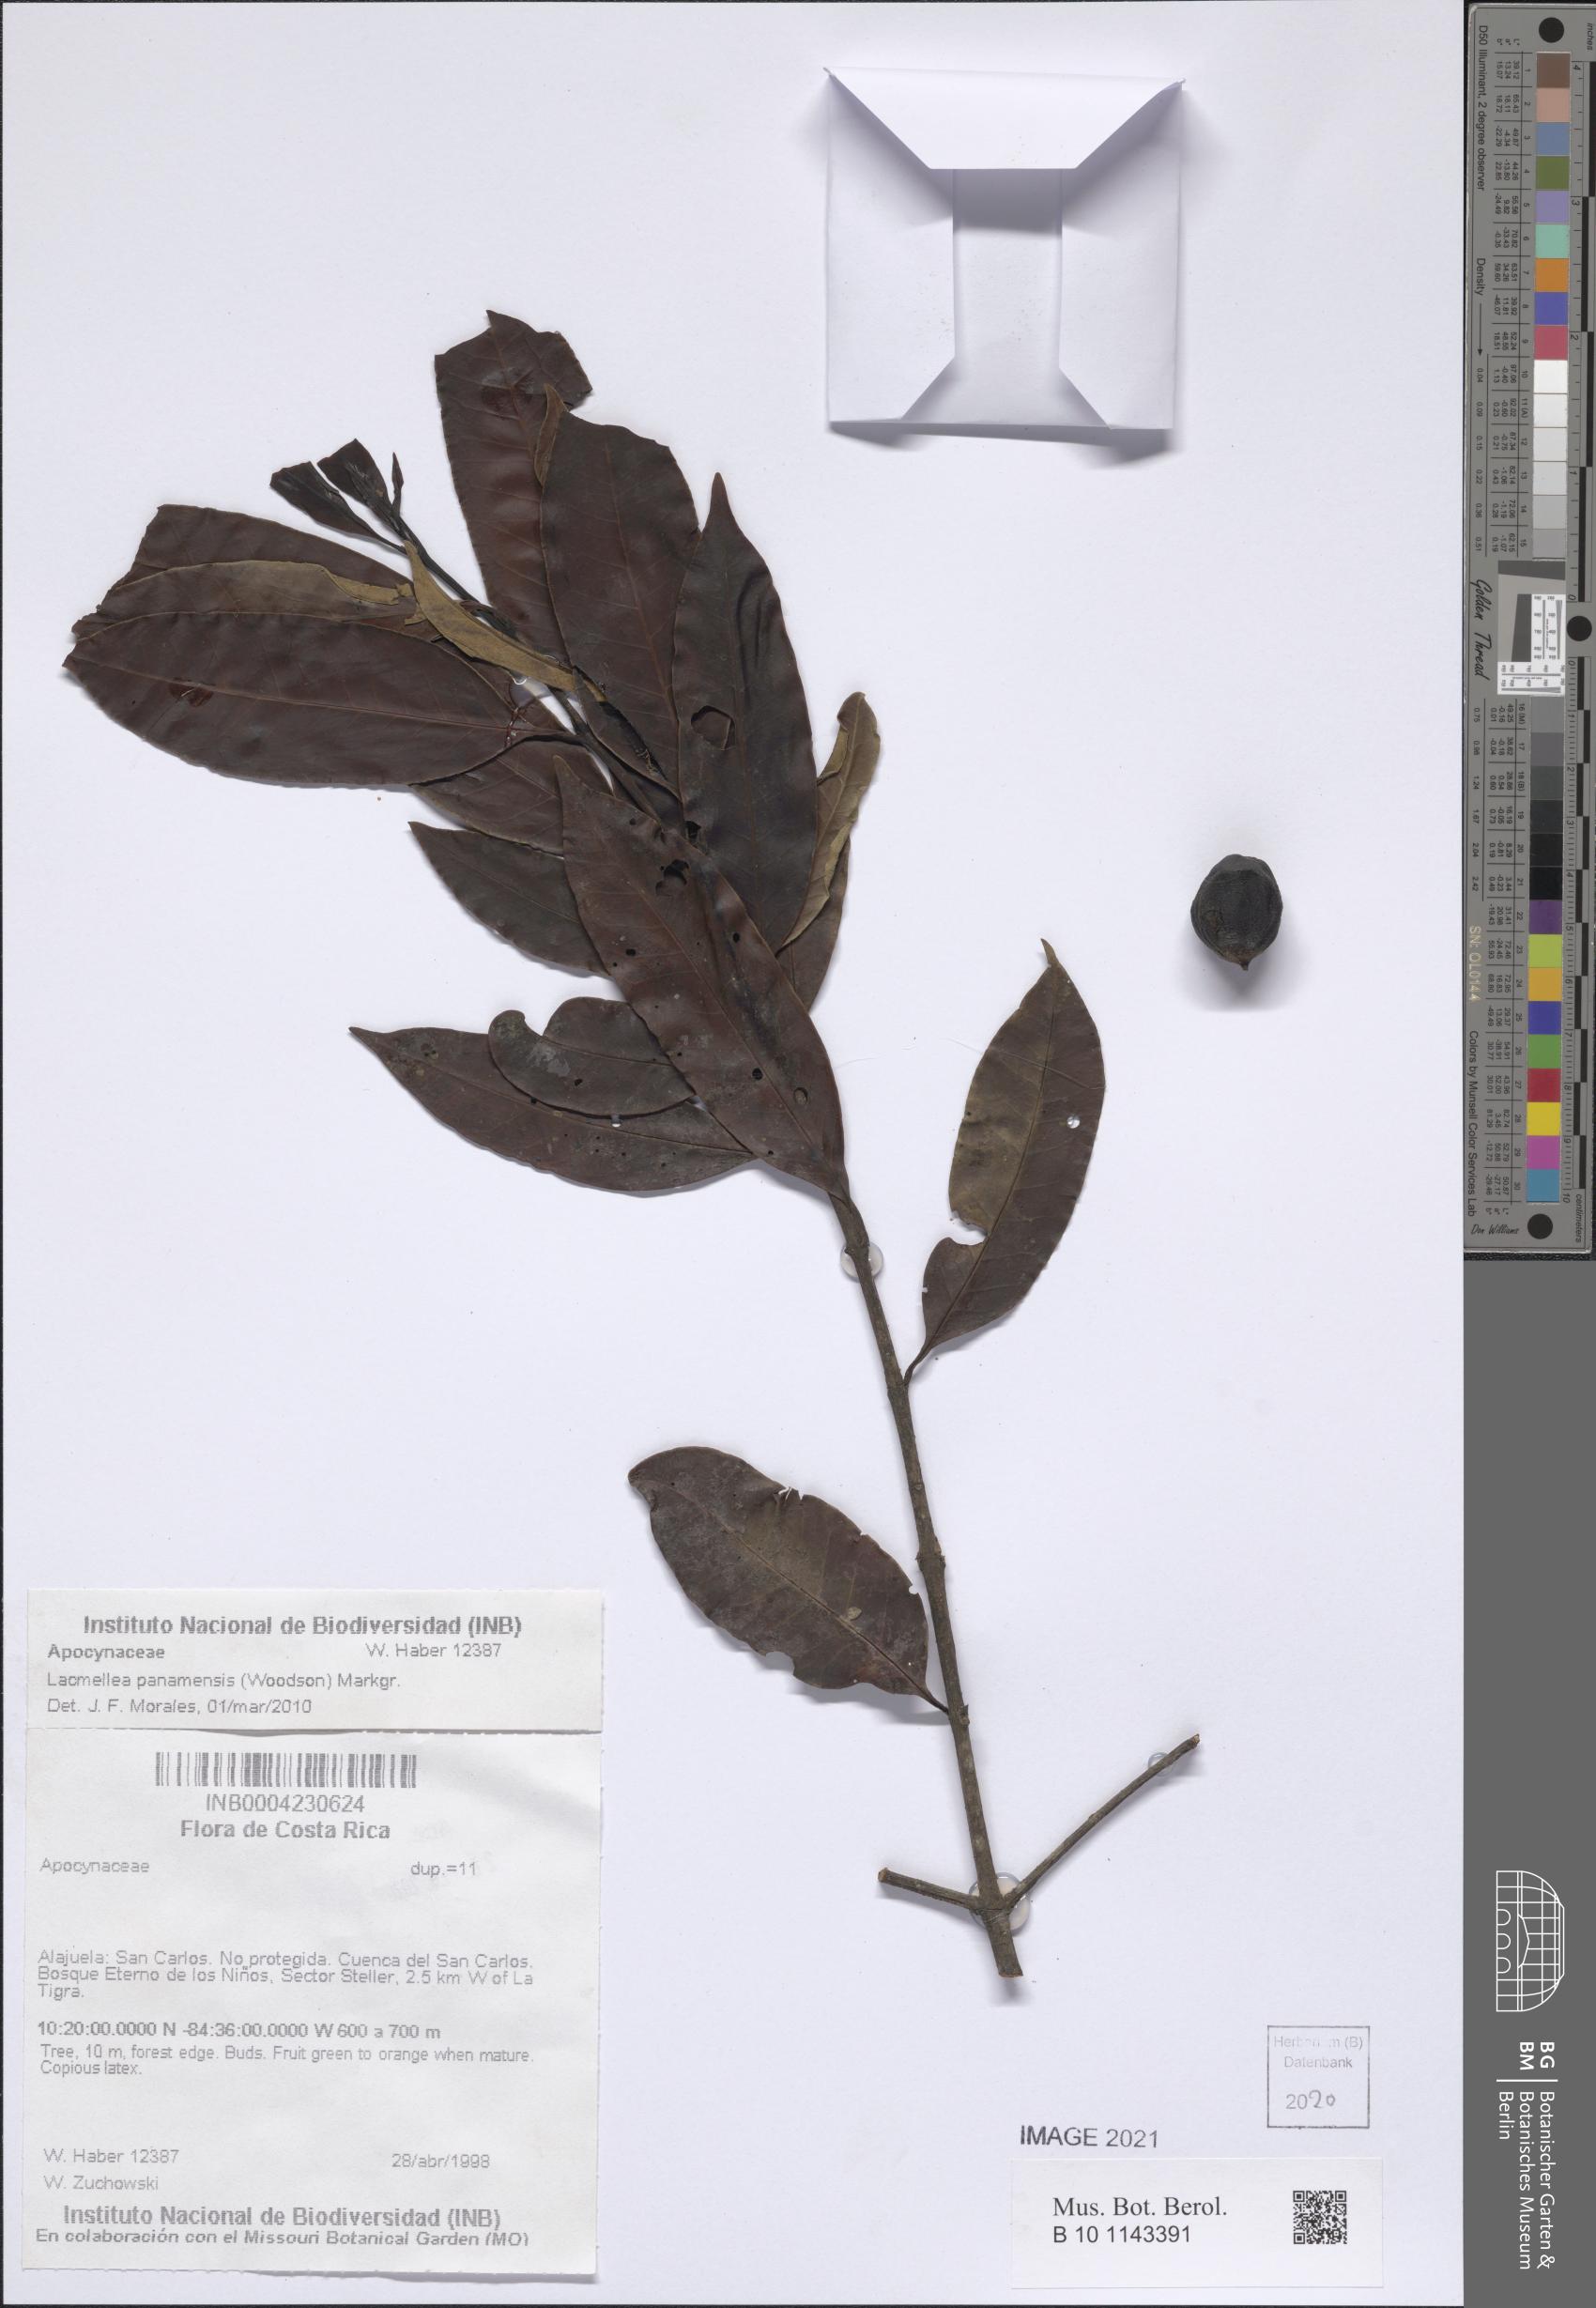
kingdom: Plantae
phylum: Tracheophyta
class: Magnoliopsida
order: Gentianales
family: Apocynaceae
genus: Lacmellea
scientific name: Lacmellea panamensis
